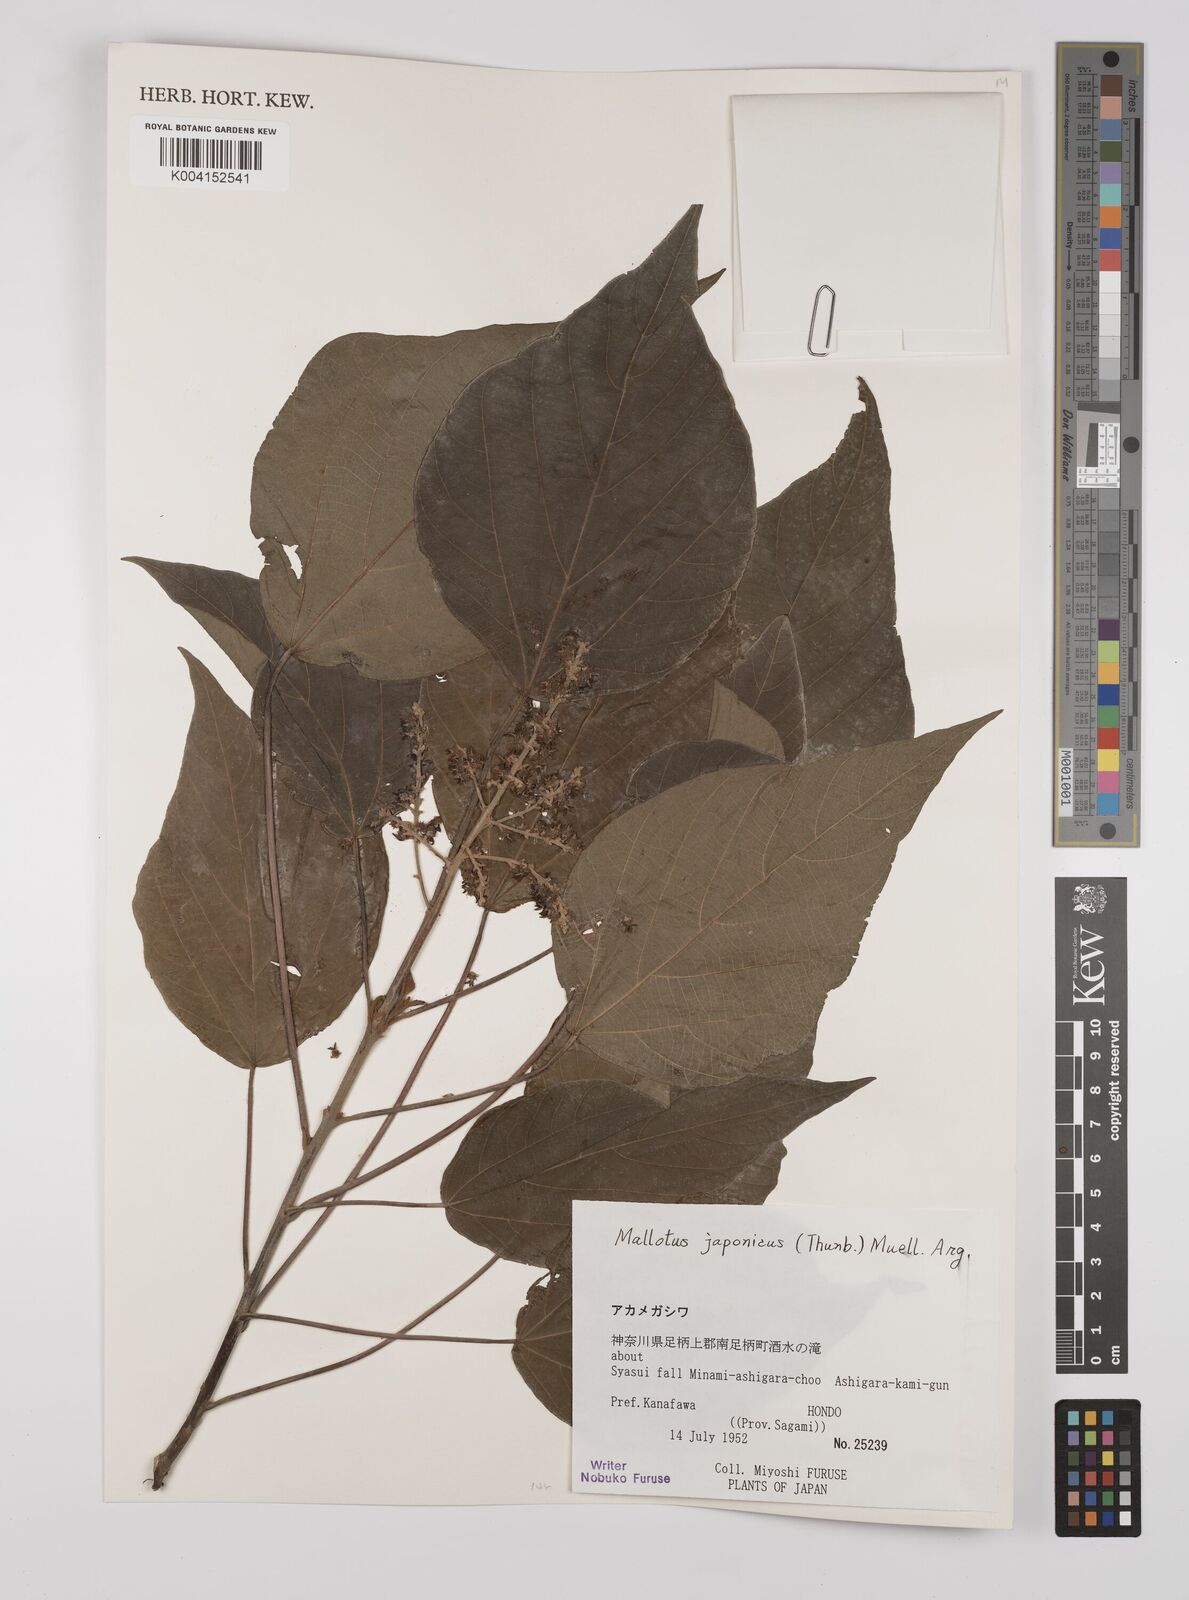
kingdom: Plantae
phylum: Tracheophyta
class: Magnoliopsida
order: Malpighiales
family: Euphorbiaceae
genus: Mallotus
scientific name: Mallotus japonicus
